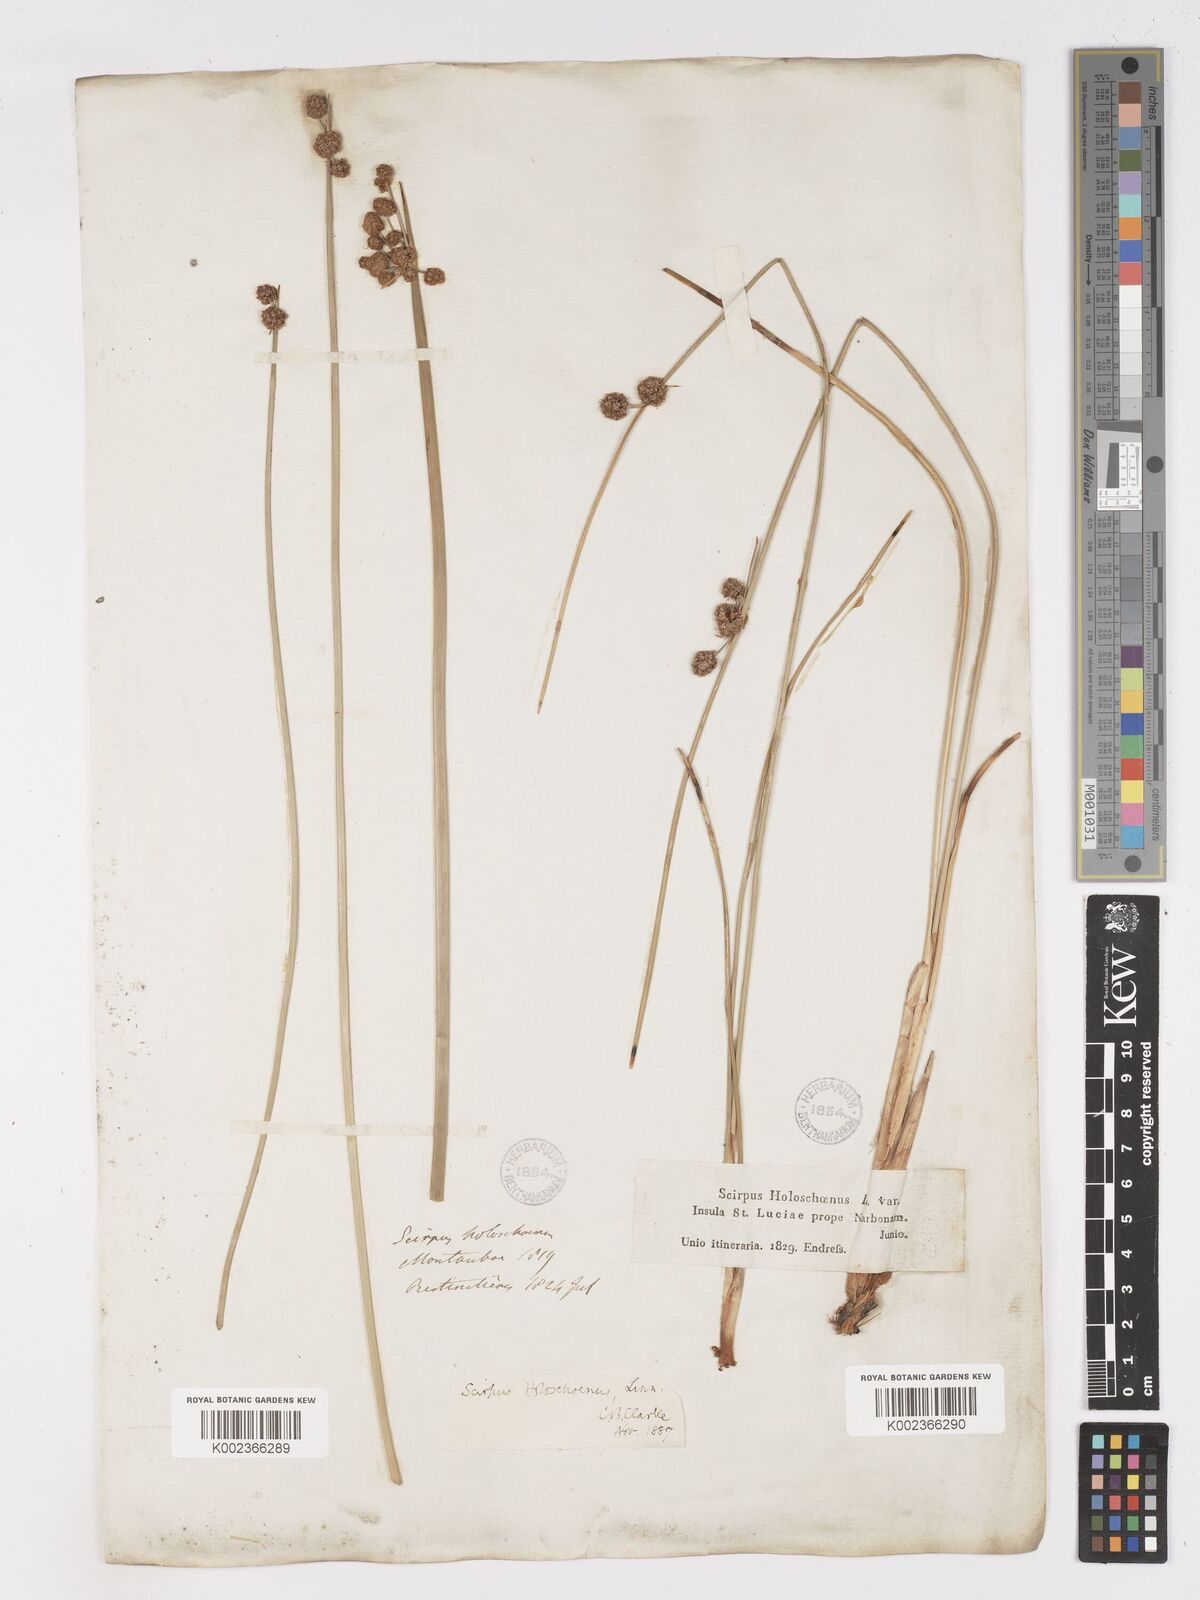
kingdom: Plantae
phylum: Tracheophyta
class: Liliopsida
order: Poales
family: Cyperaceae
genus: Scirpoides
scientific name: Scirpoides holoschoenus
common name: Round-headed club-rush
